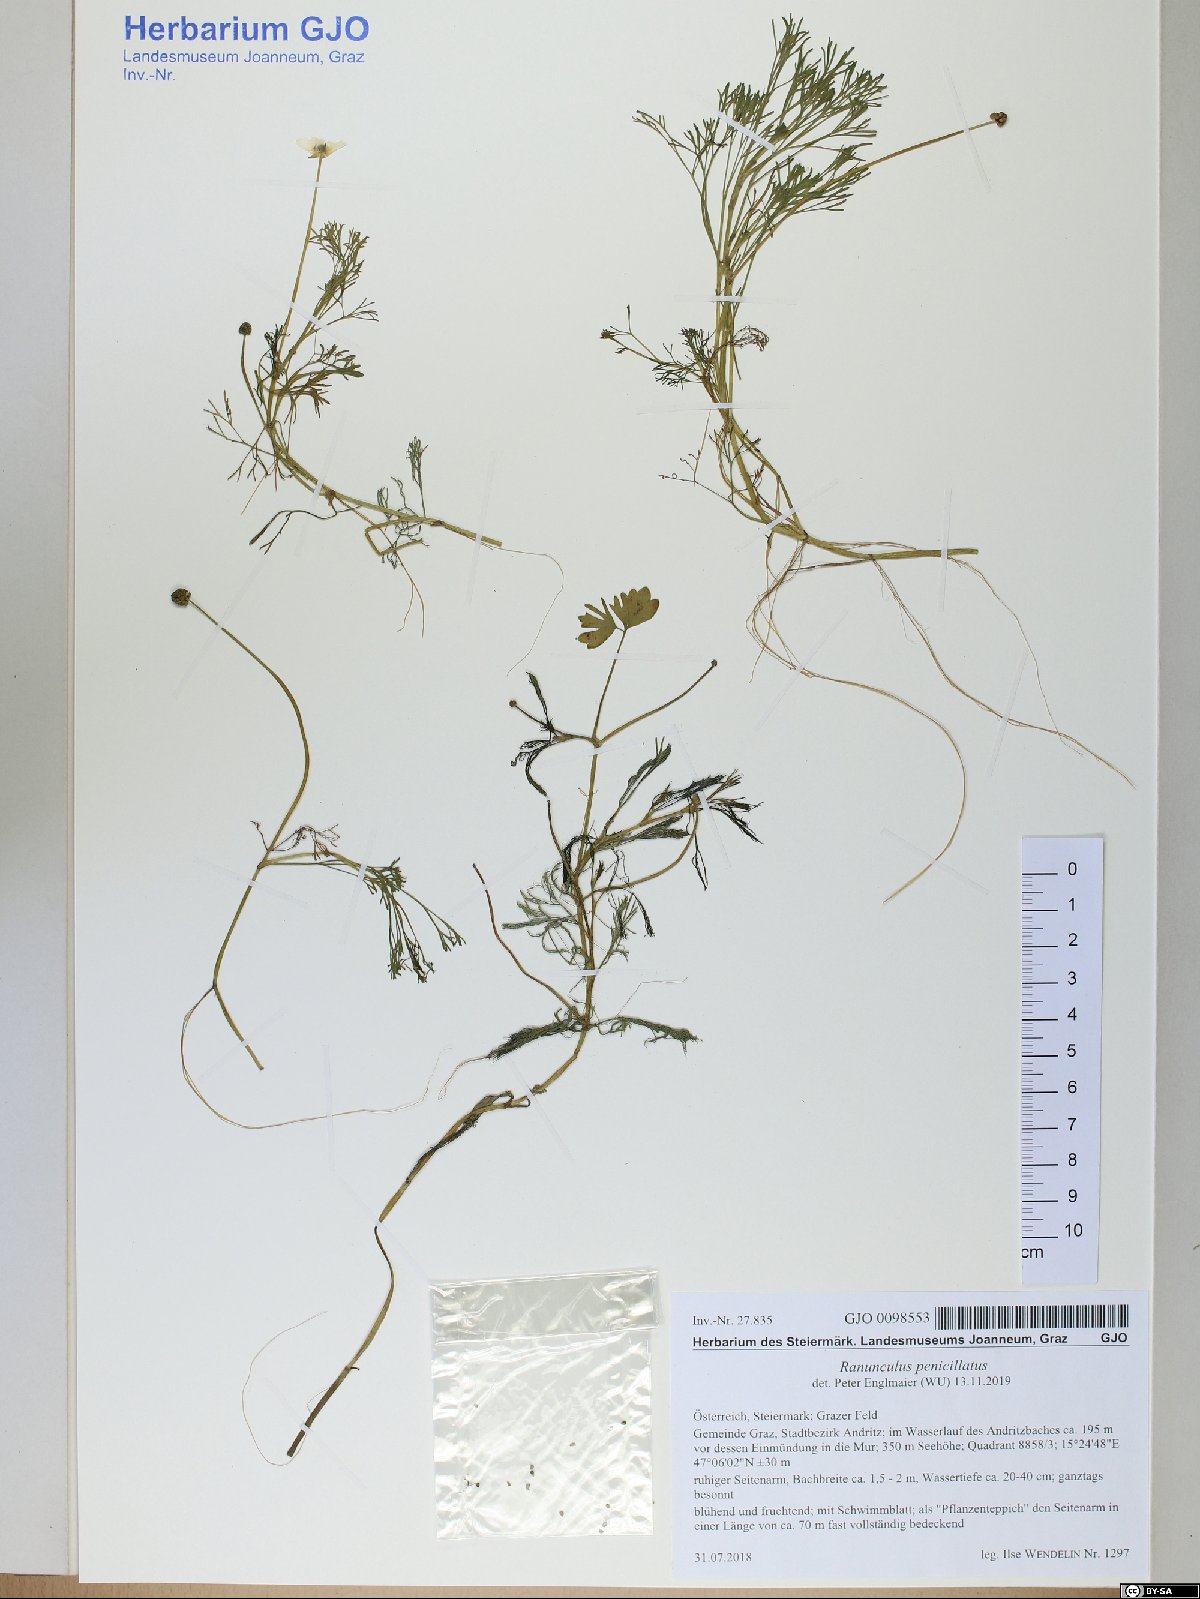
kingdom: Plantae
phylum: Tracheophyta
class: Magnoliopsida
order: Ranunculales
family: Ranunculaceae
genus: Ranunculus
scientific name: Ranunculus penicillatus
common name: Stream water-crowfoot
